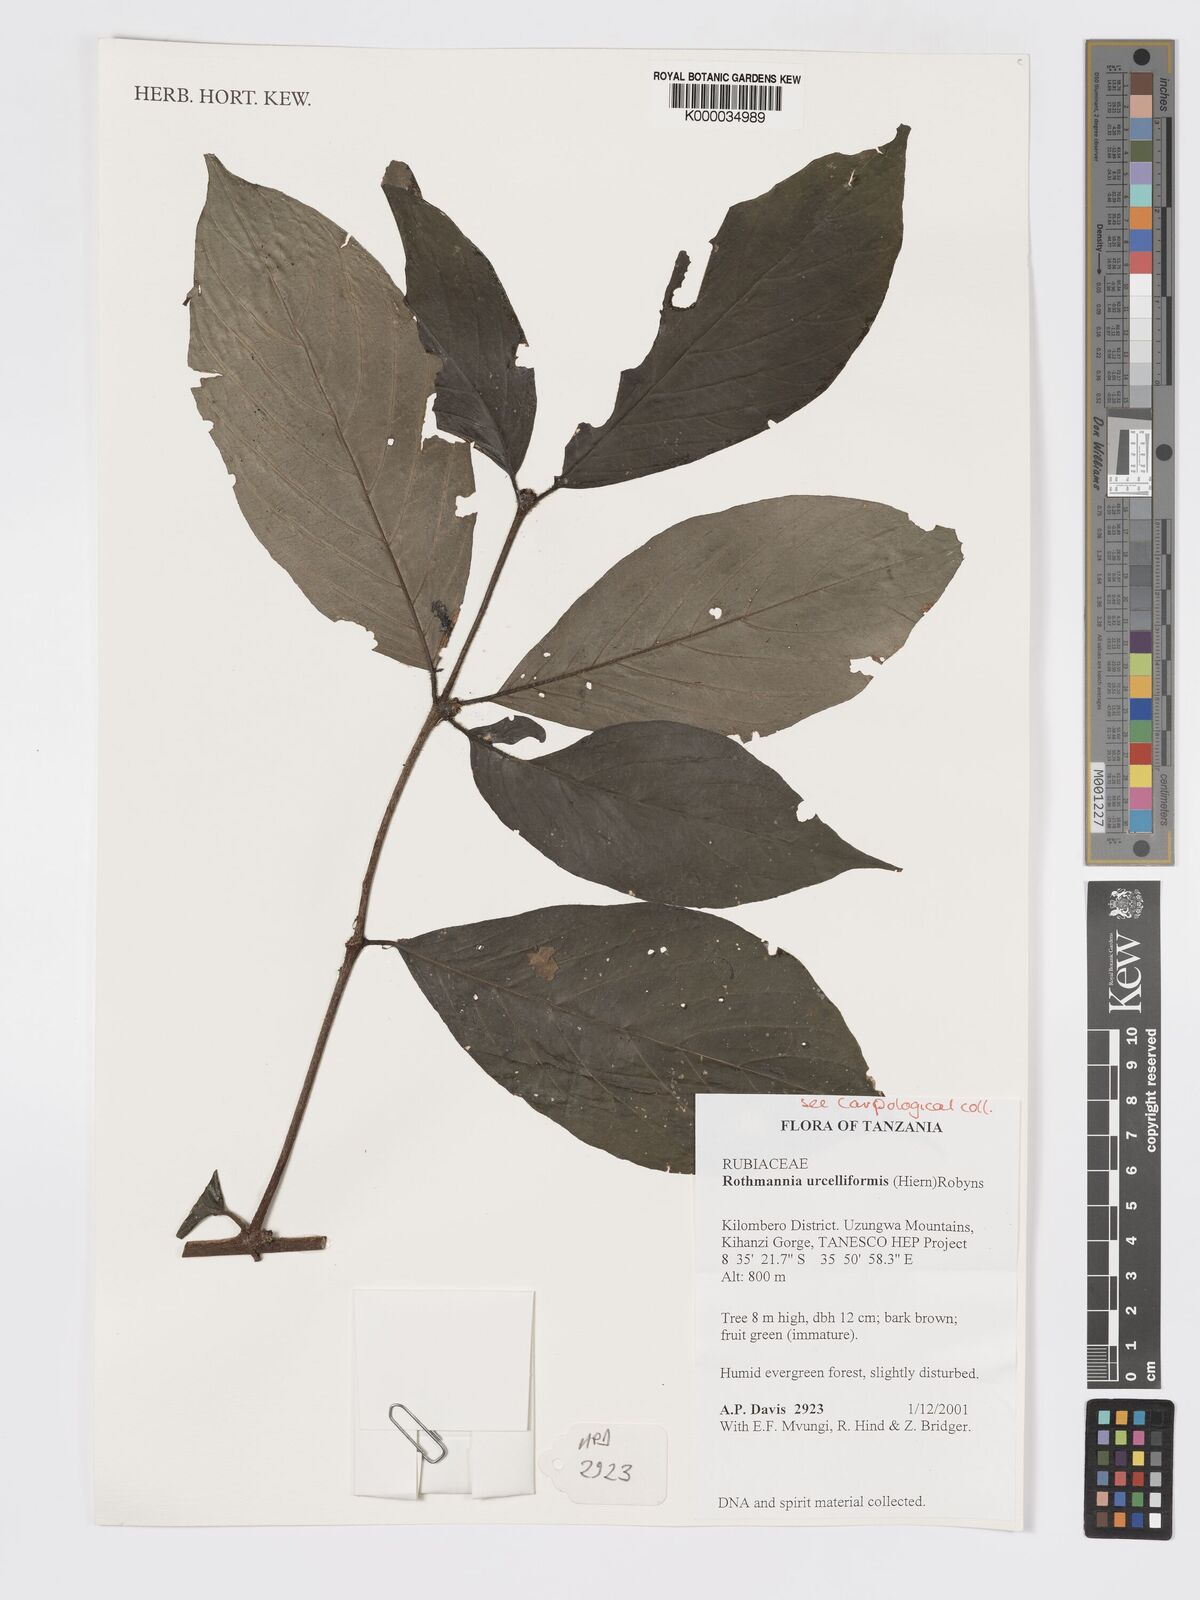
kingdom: Plantae
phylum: Tracheophyta
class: Magnoliopsida
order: Gentianales
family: Rubiaceae
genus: Rothmannia
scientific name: Rothmannia urcelliformis
